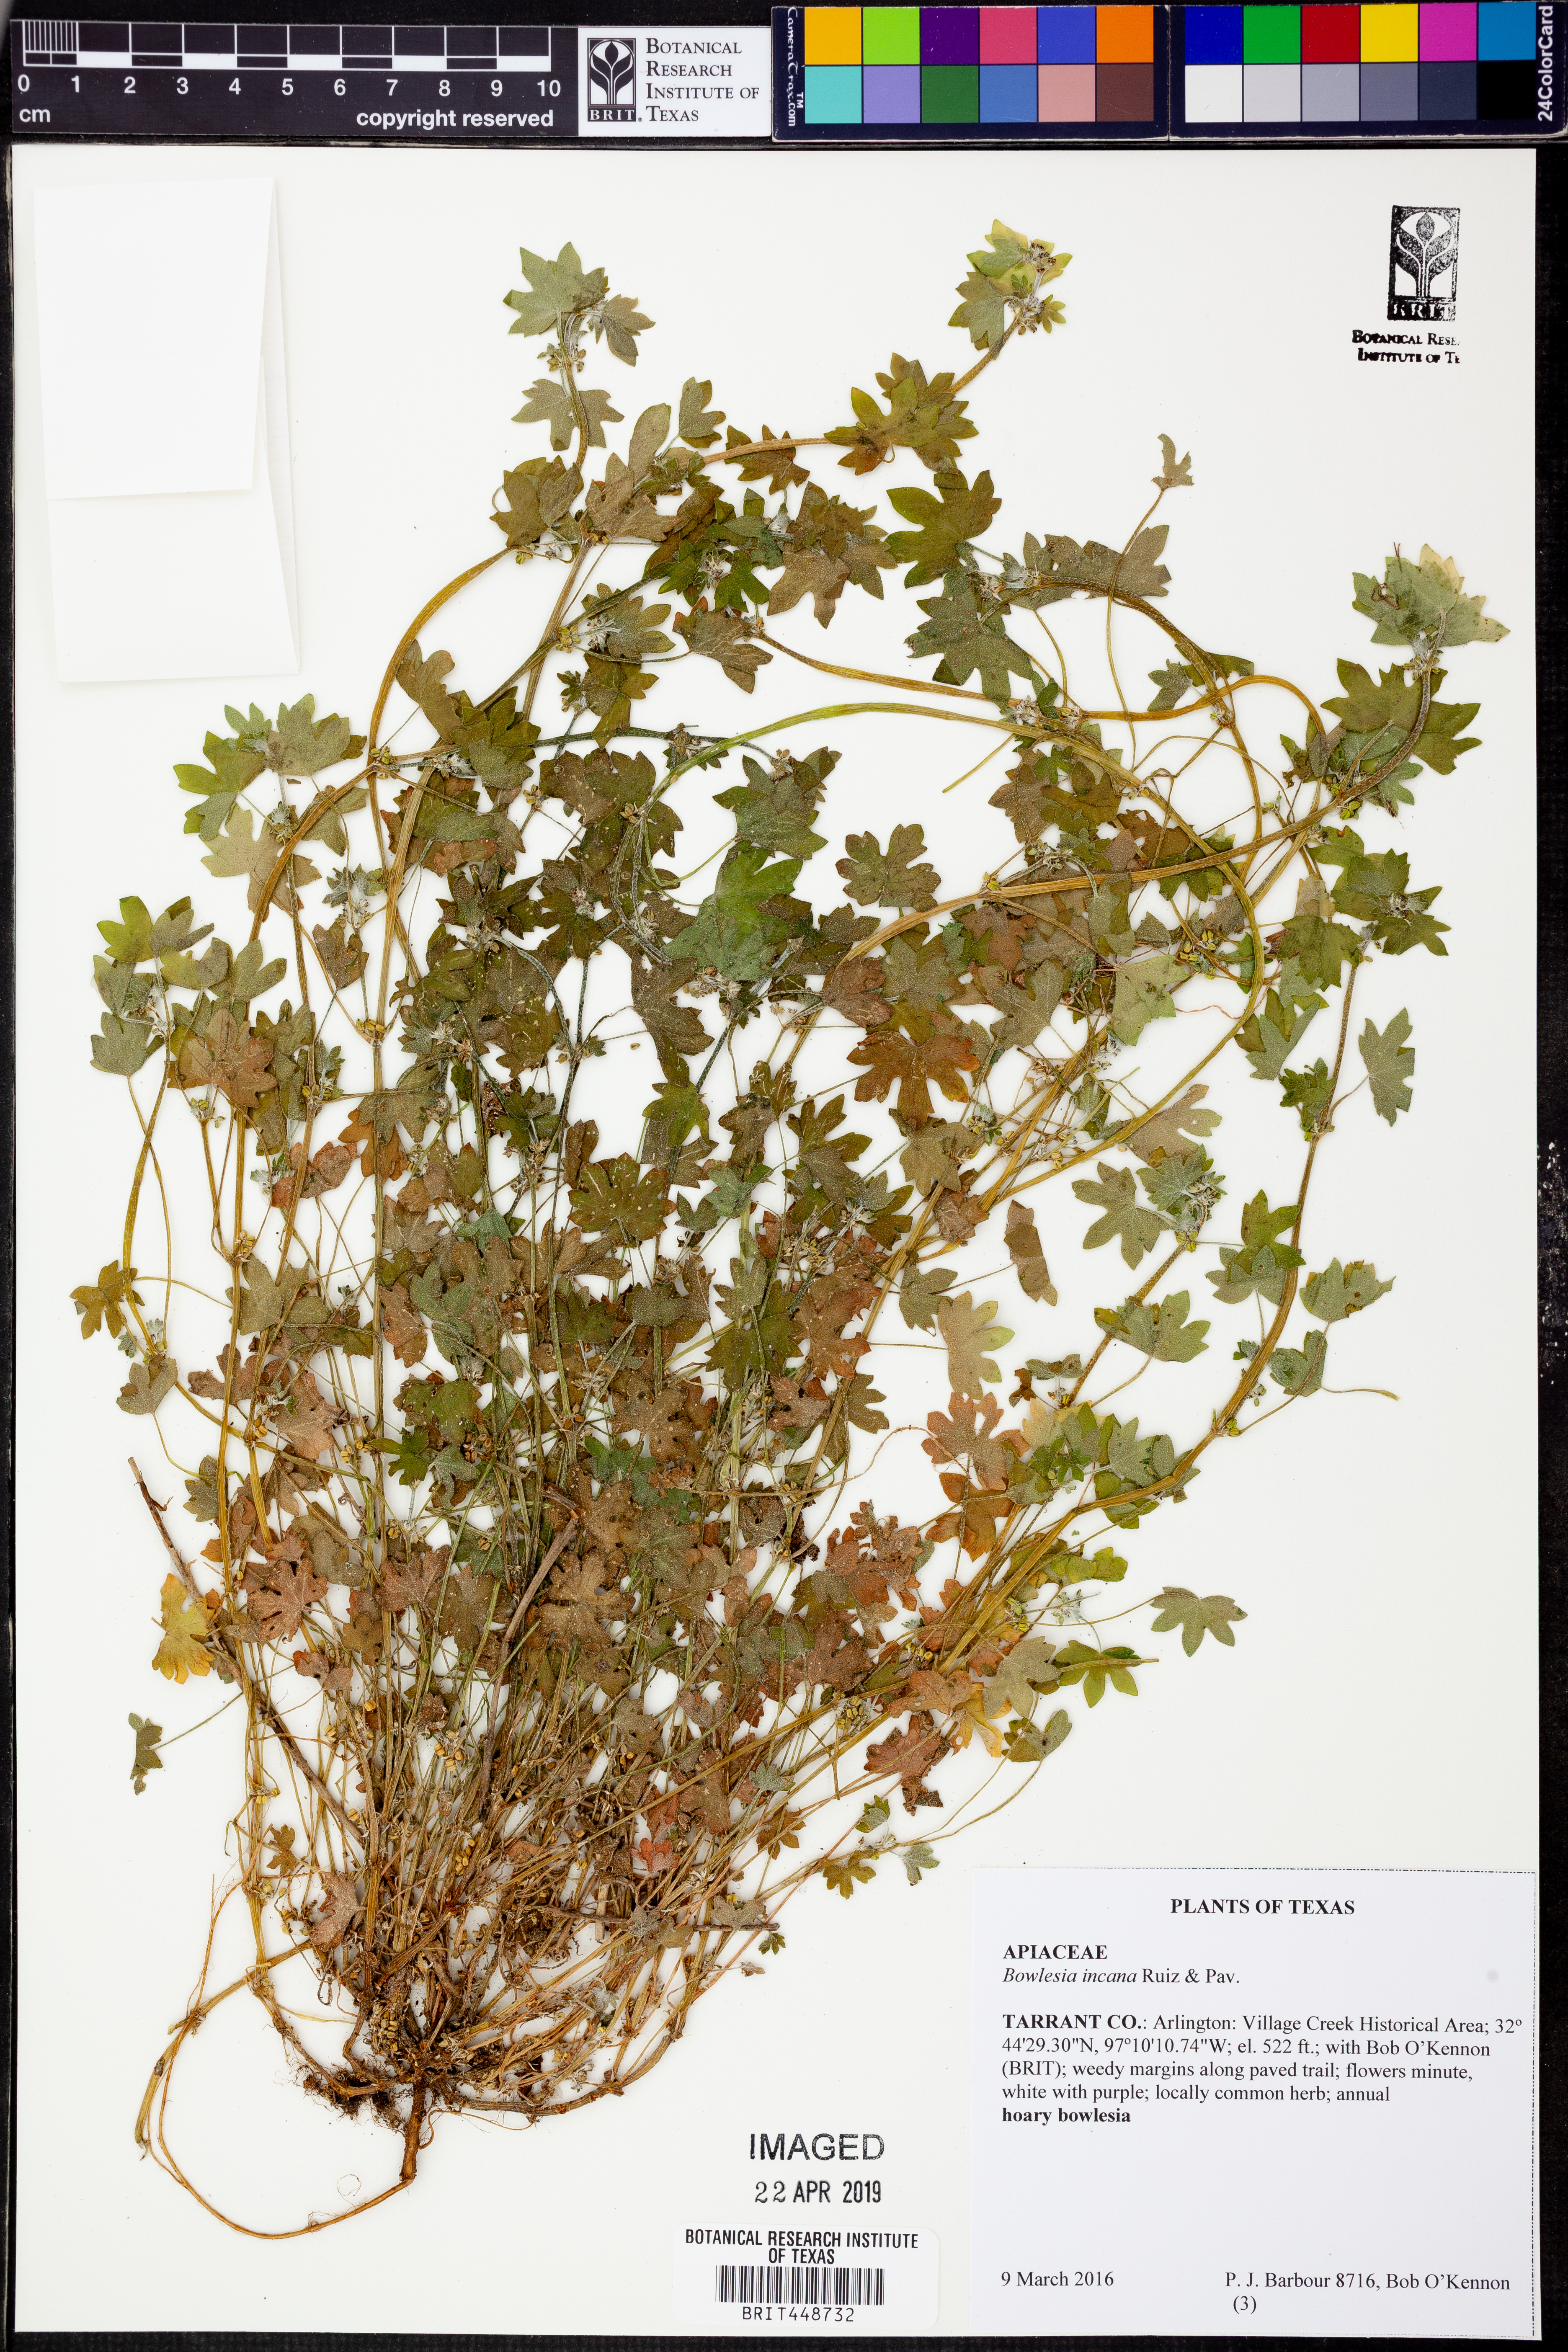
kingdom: Plantae
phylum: Tracheophyta
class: Magnoliopsida
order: Apiales
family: Apiaceae
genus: Bowlesia
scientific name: Bowlesia incana
